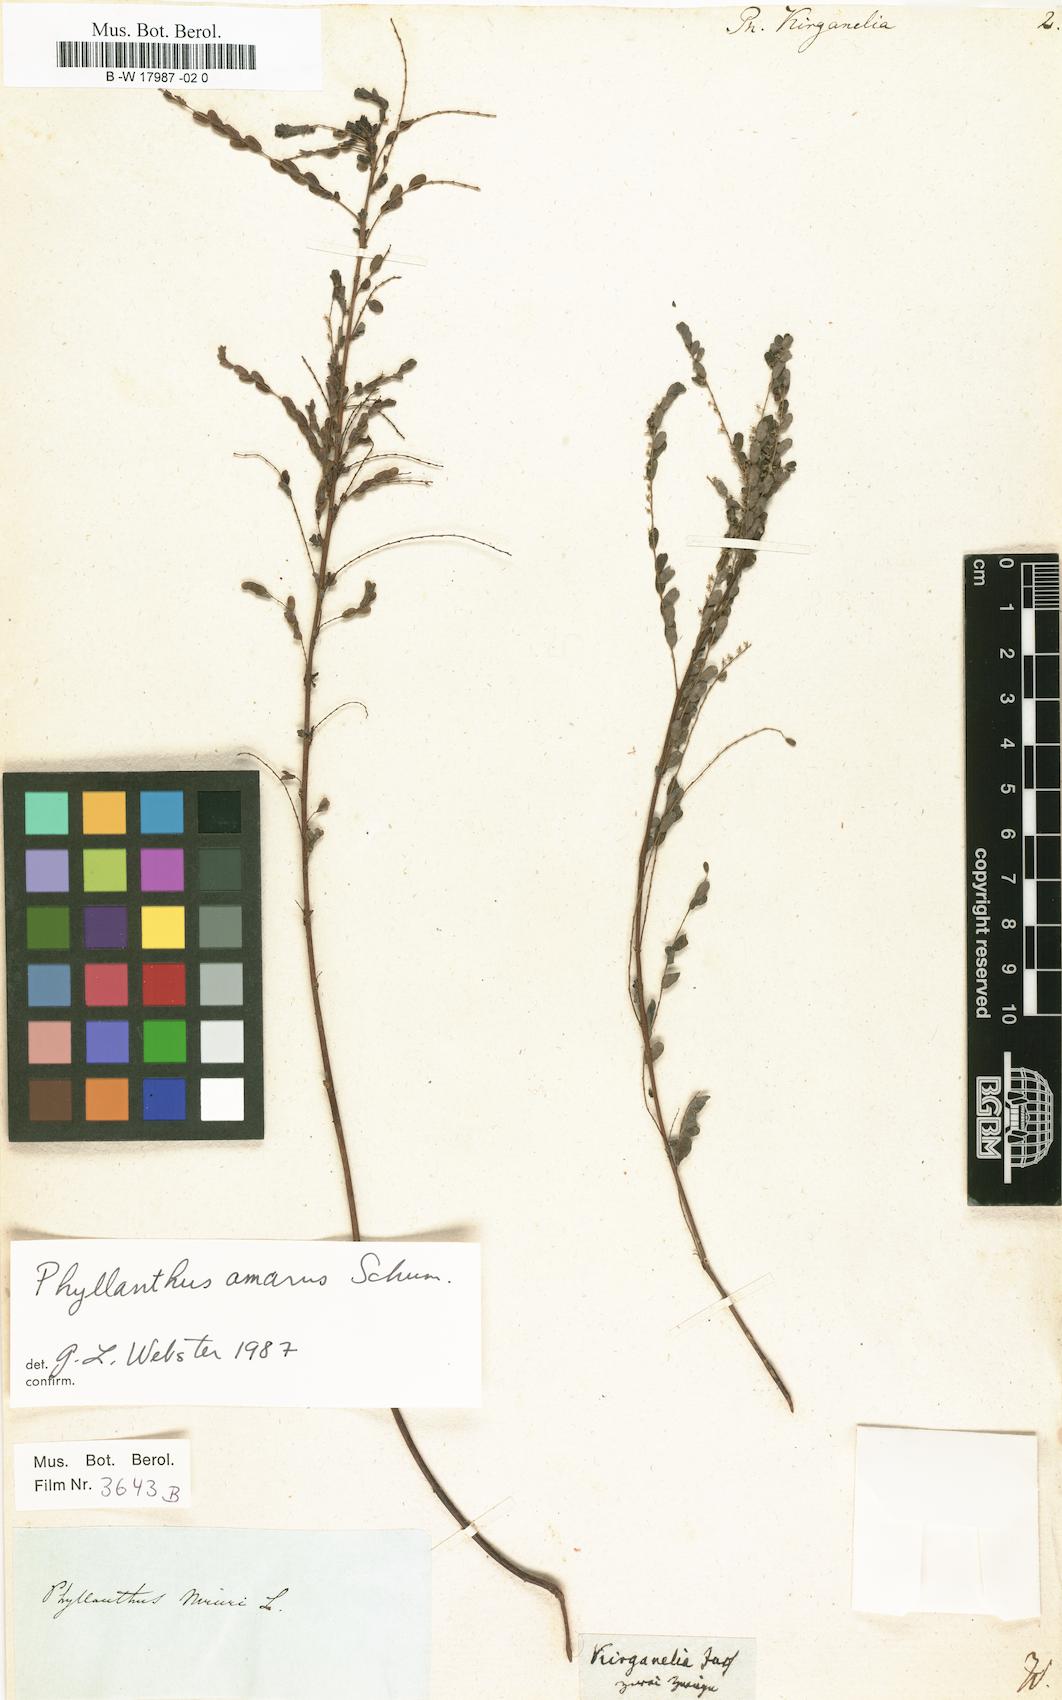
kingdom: Plantae
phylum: Tracheophyta
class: Magnoliopsida
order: Malpighiales
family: Phyllanthaceae
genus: Phyllanthus
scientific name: Phyllanthus kirganelia
